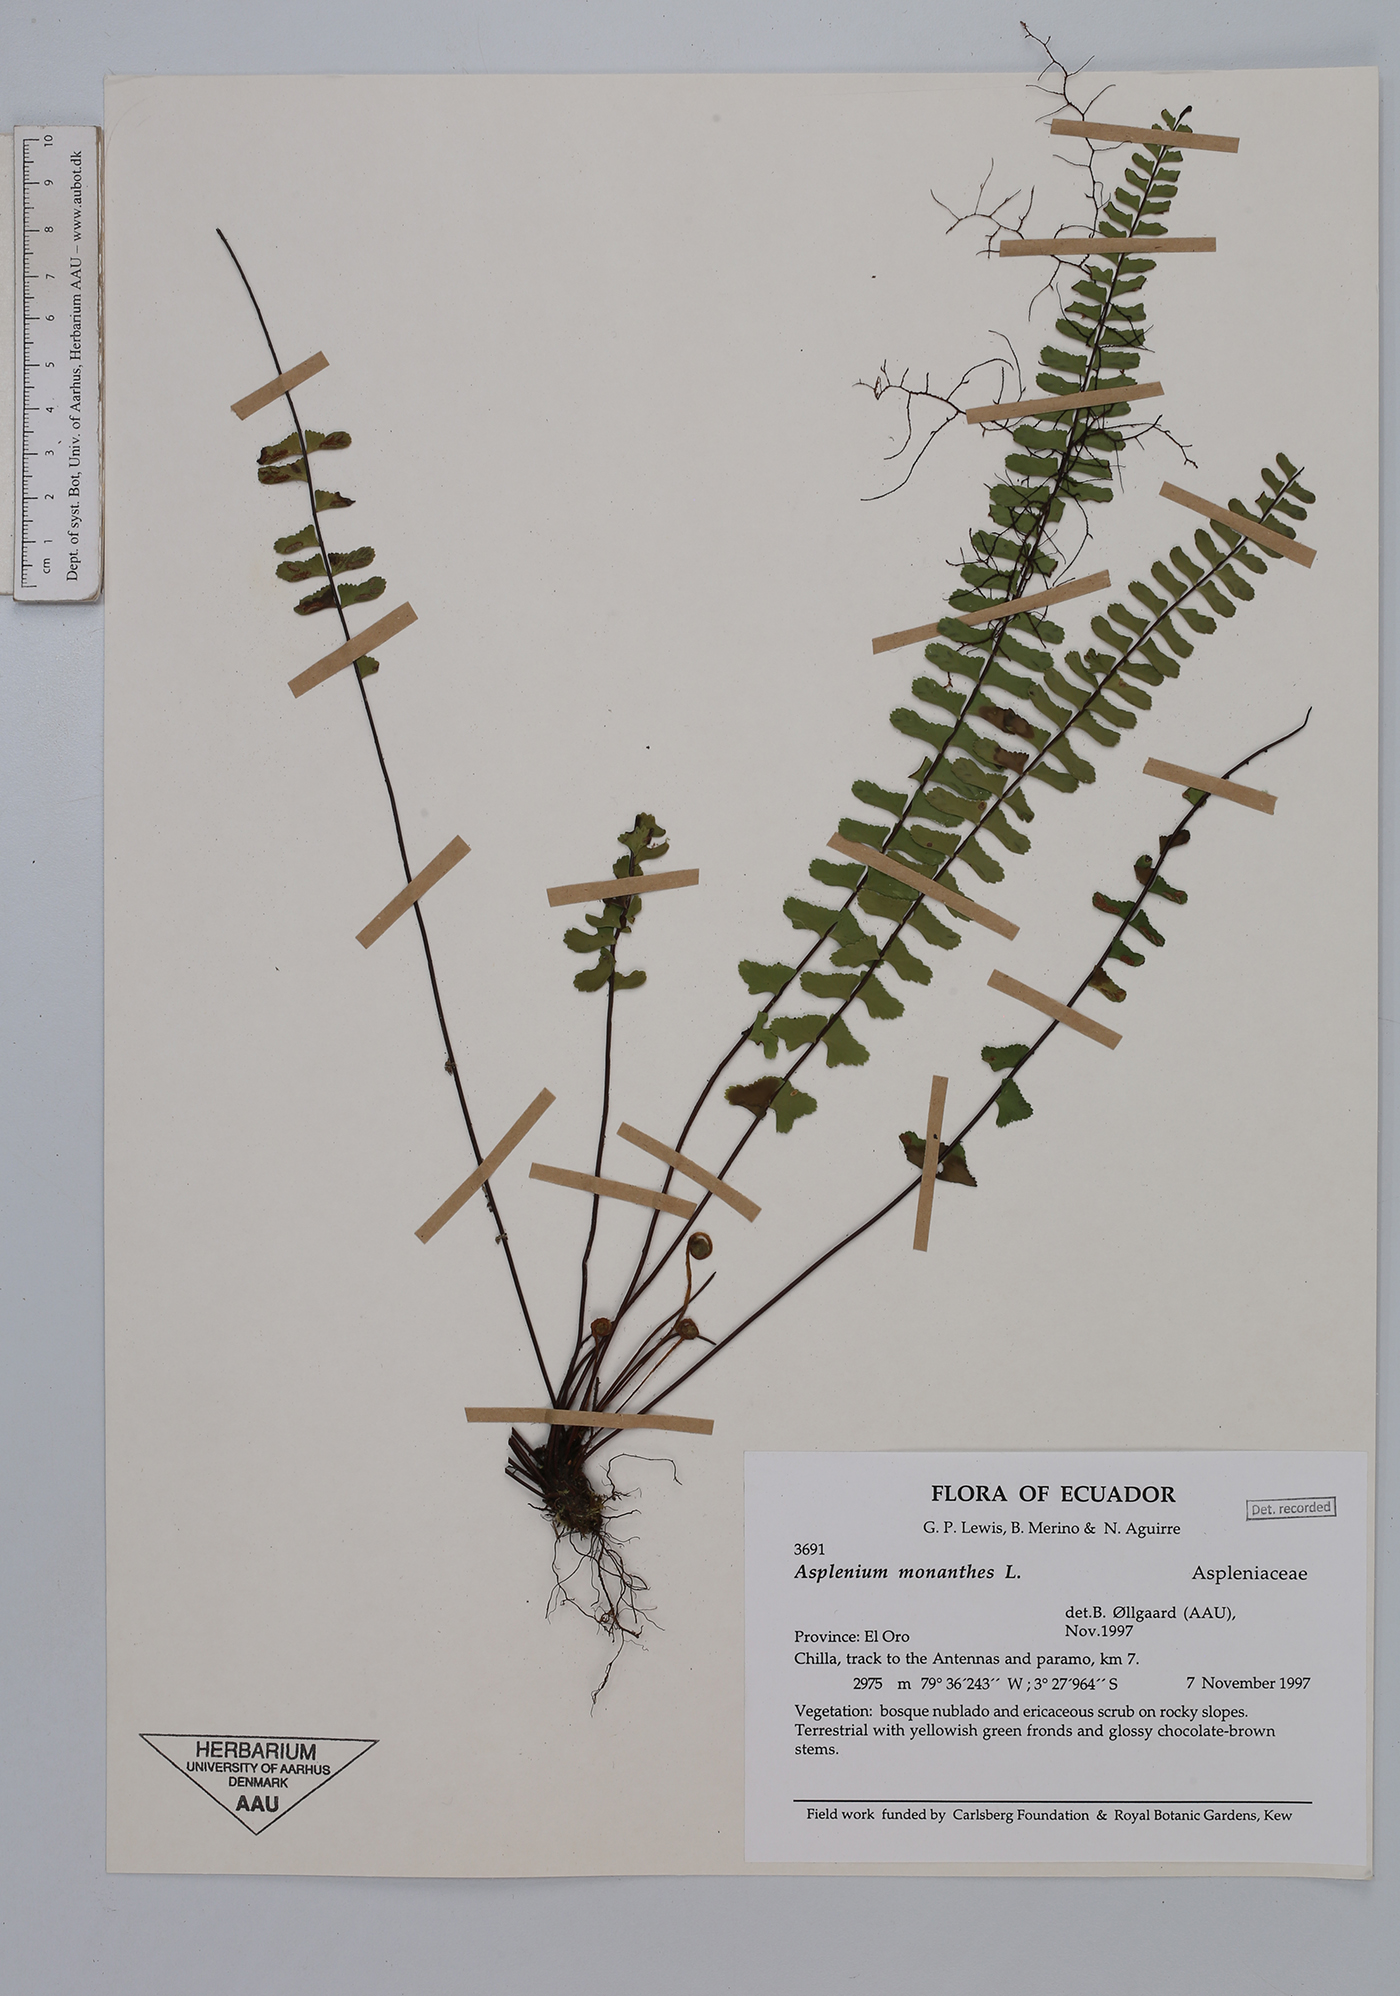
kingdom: Plantae
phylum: Tracheophyta
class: Polypodiopsida
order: Polypodiales
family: Aspleniaceae
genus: Asplenium
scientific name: Asplenium monanthes
